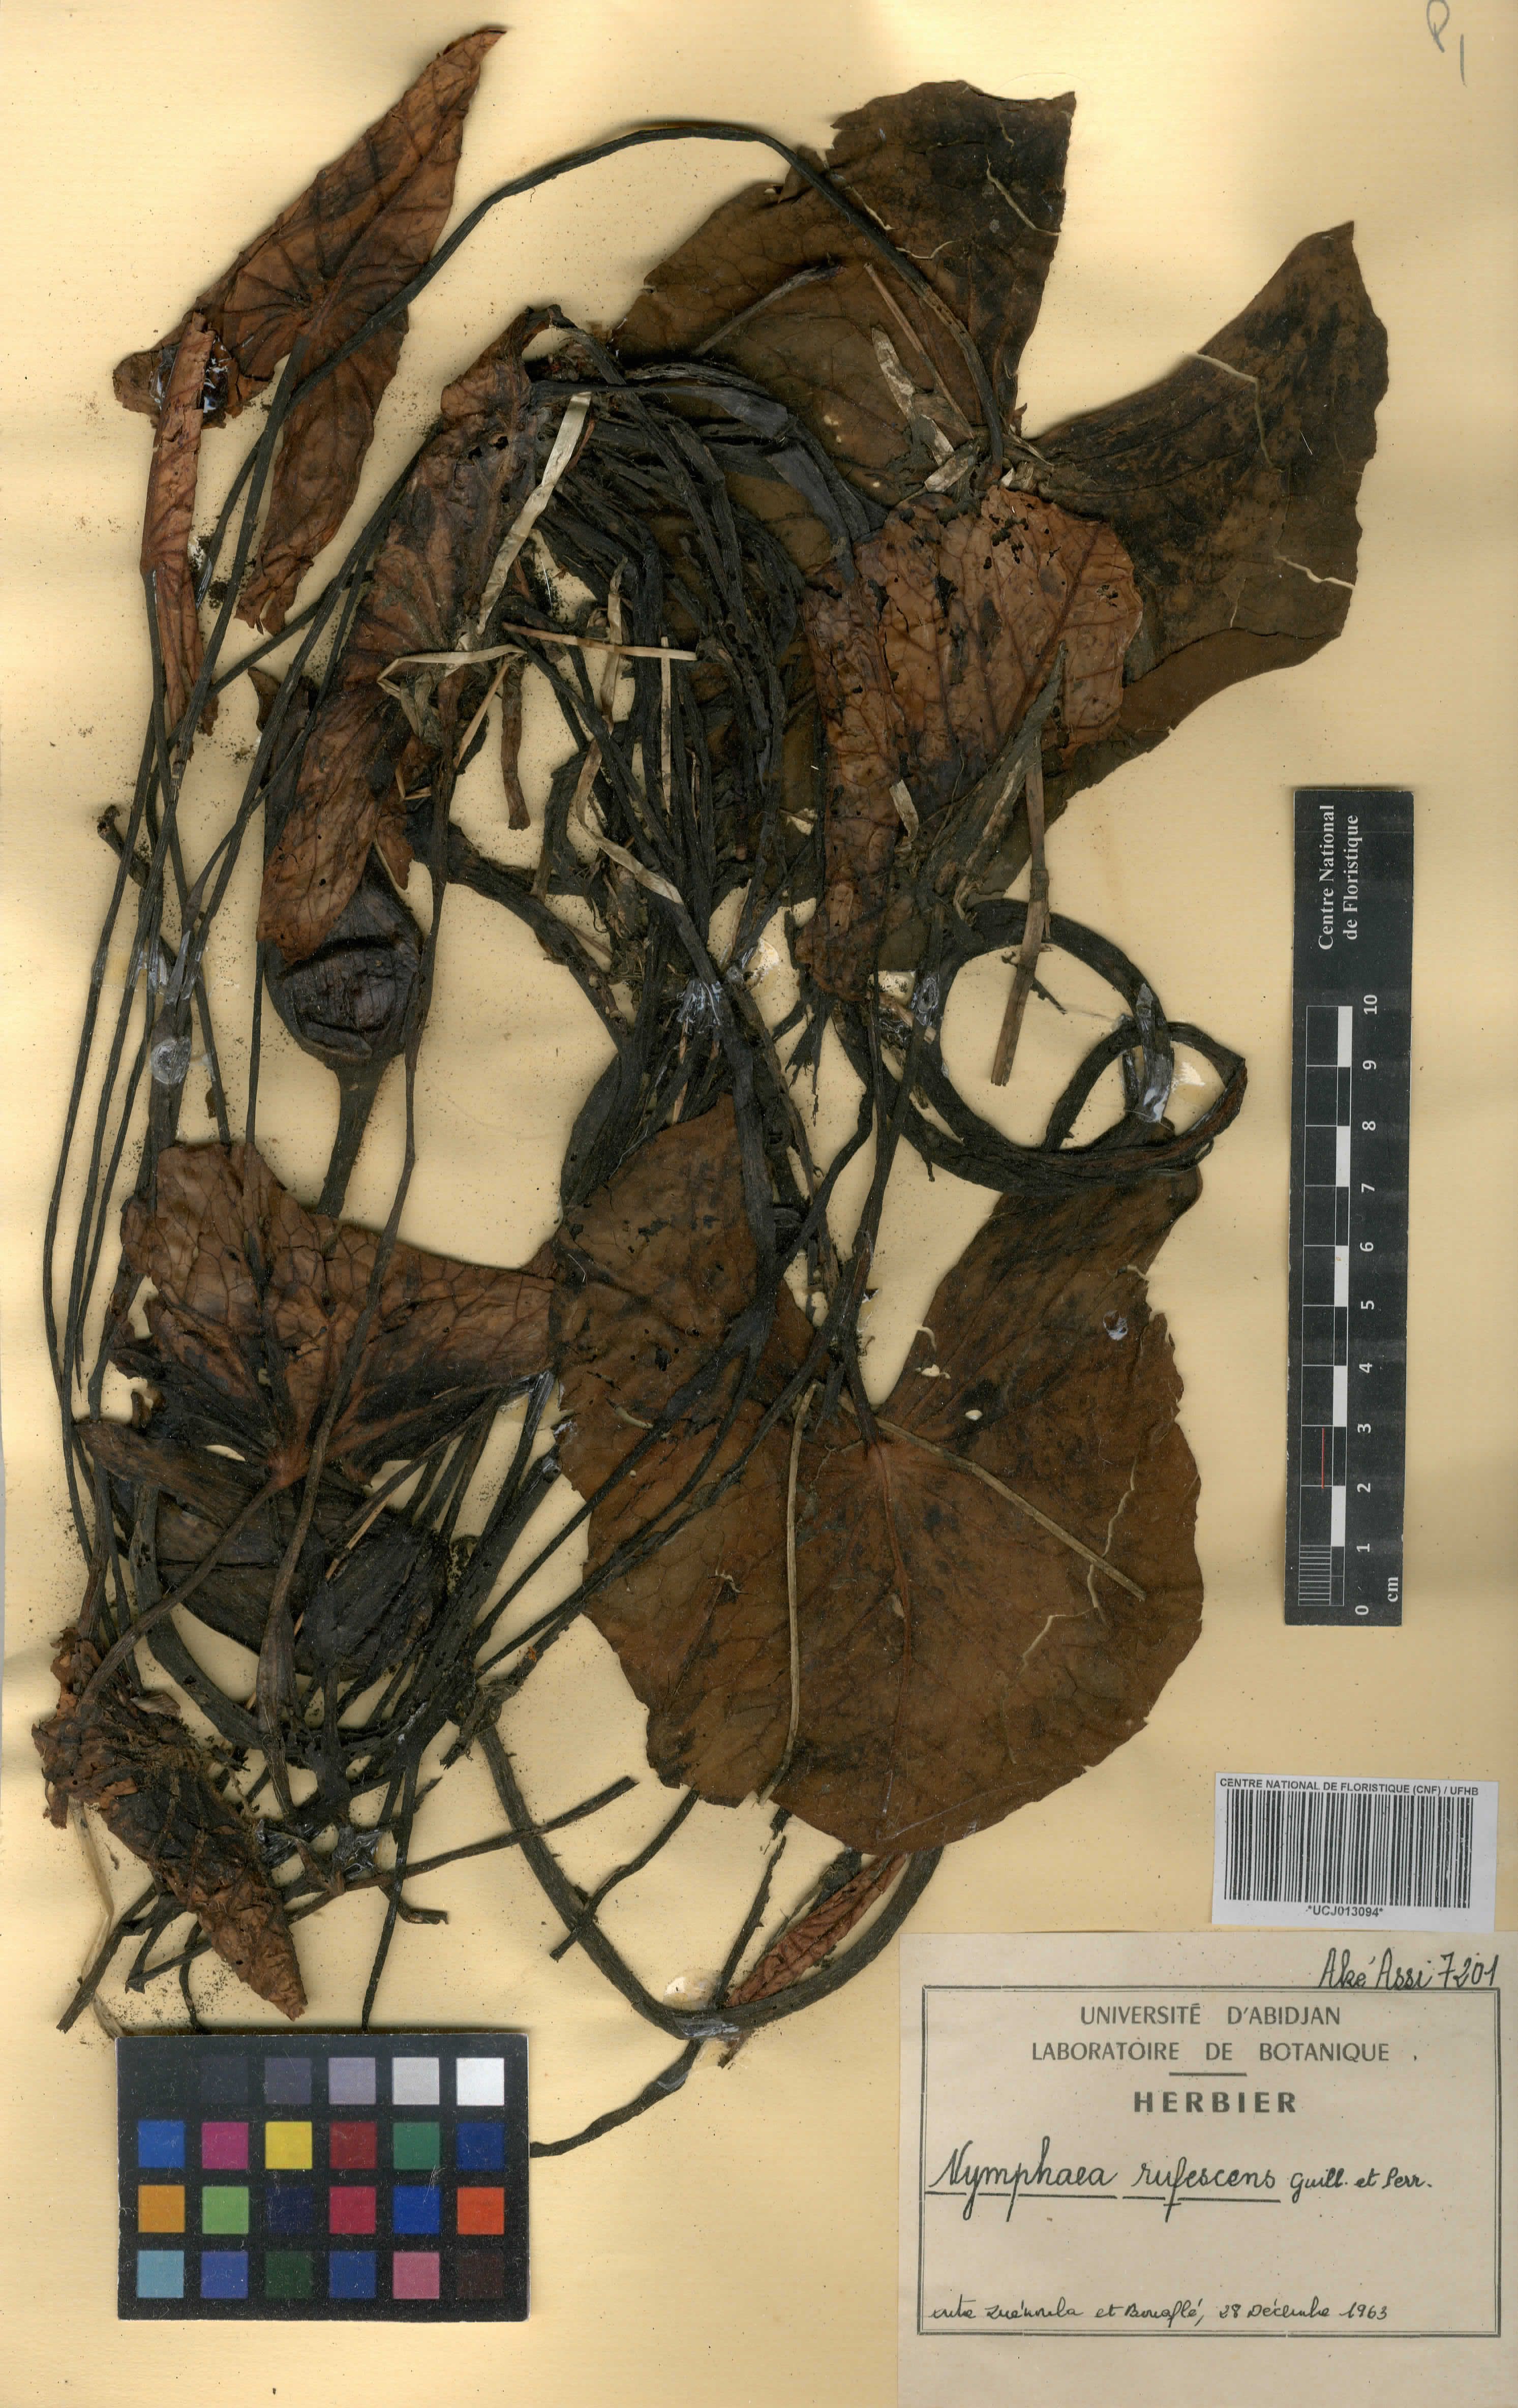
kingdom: Plantae
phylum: Tracheophyta
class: Magnoliopsida
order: Nymphaeales
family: Nymphaeaceae
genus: Nymphaea
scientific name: Nymphaea micrantha
